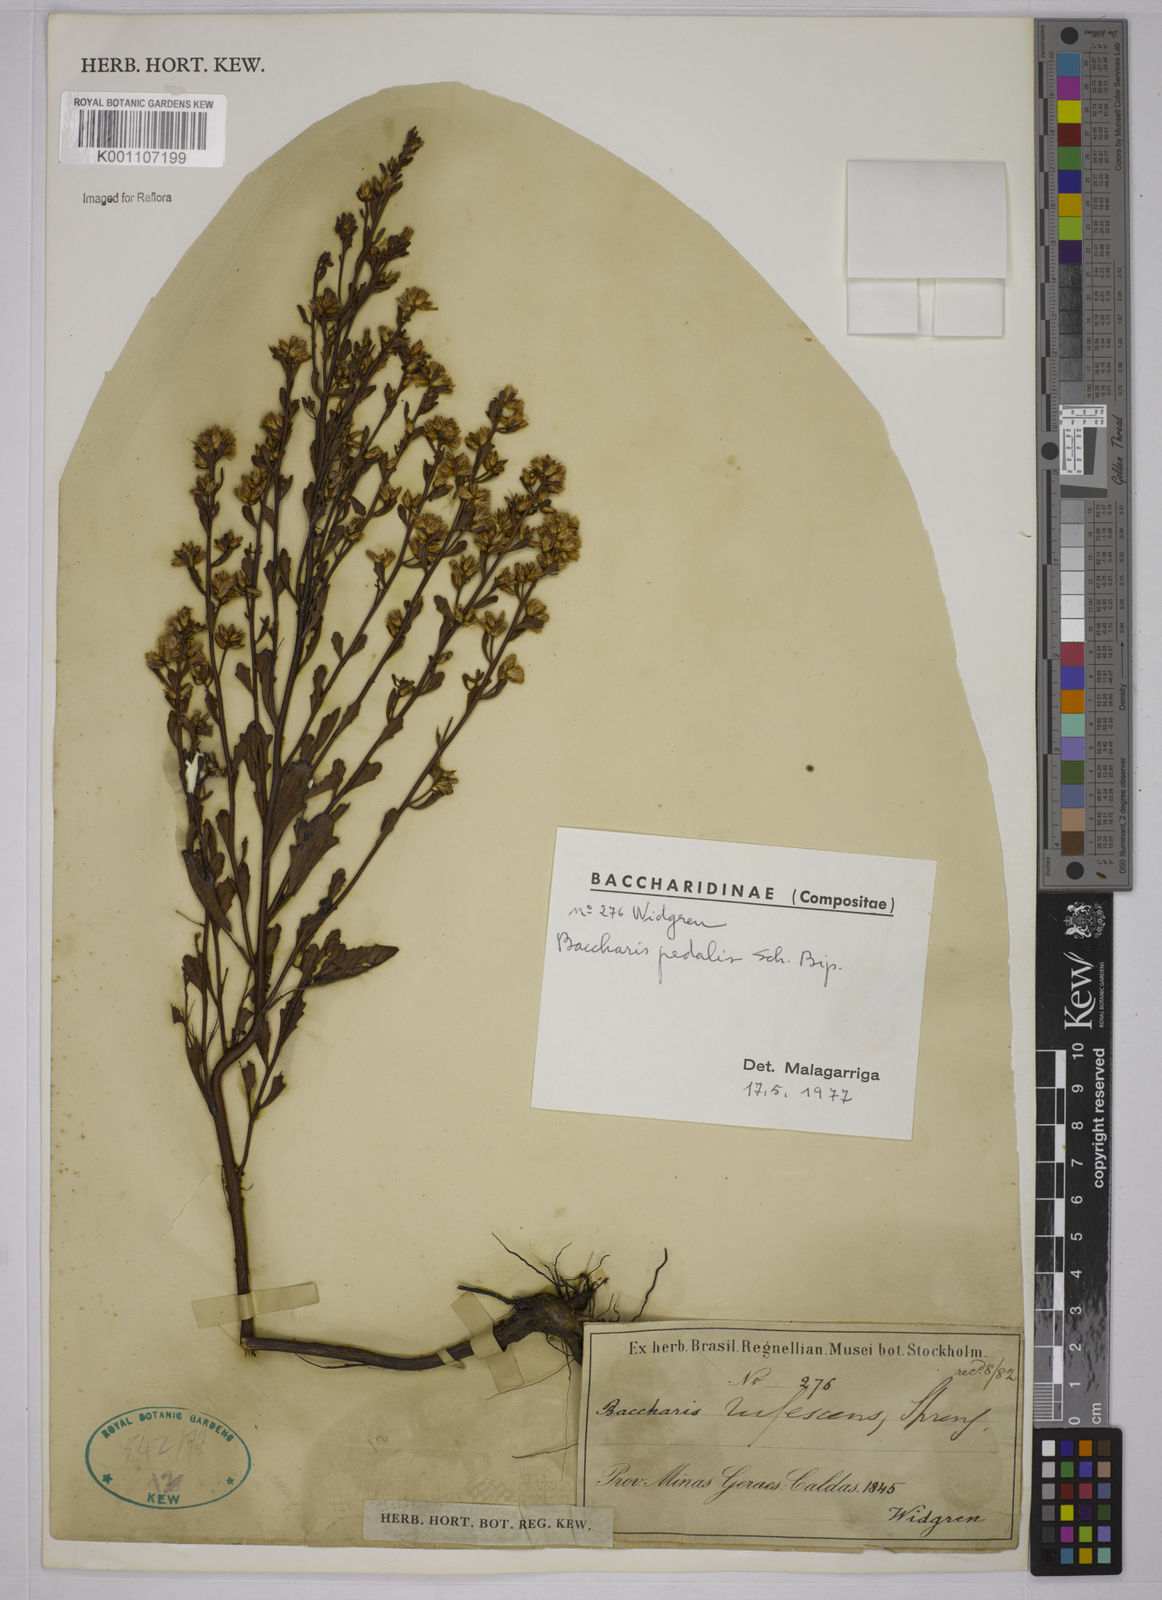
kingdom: Plantae
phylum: Tracheophyta
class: Magnoliopsida
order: Asterales
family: Asteraceae
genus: Baccharis
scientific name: Baccharis
